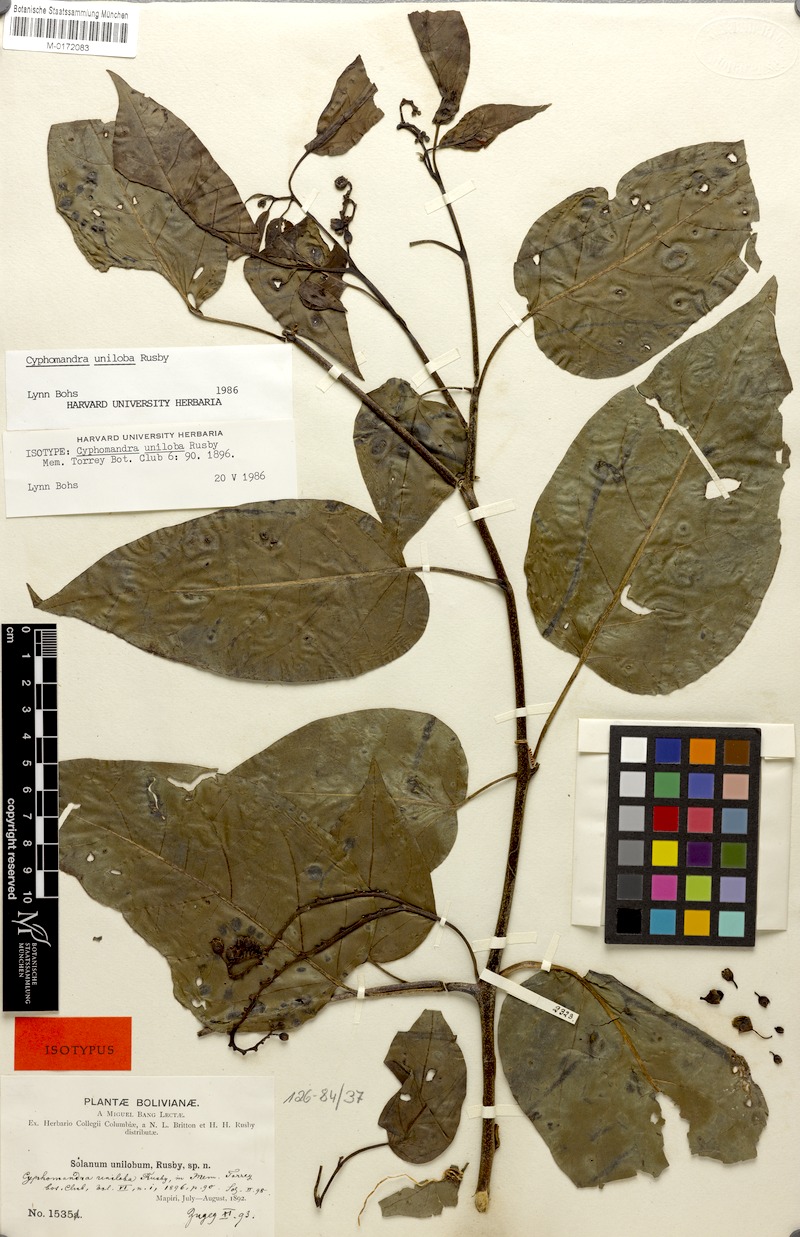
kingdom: Plantae
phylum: Tracheophyta
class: Magnoliopsida
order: Solanales
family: Solanaceae
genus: Solanum
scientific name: Solanum unilobum
